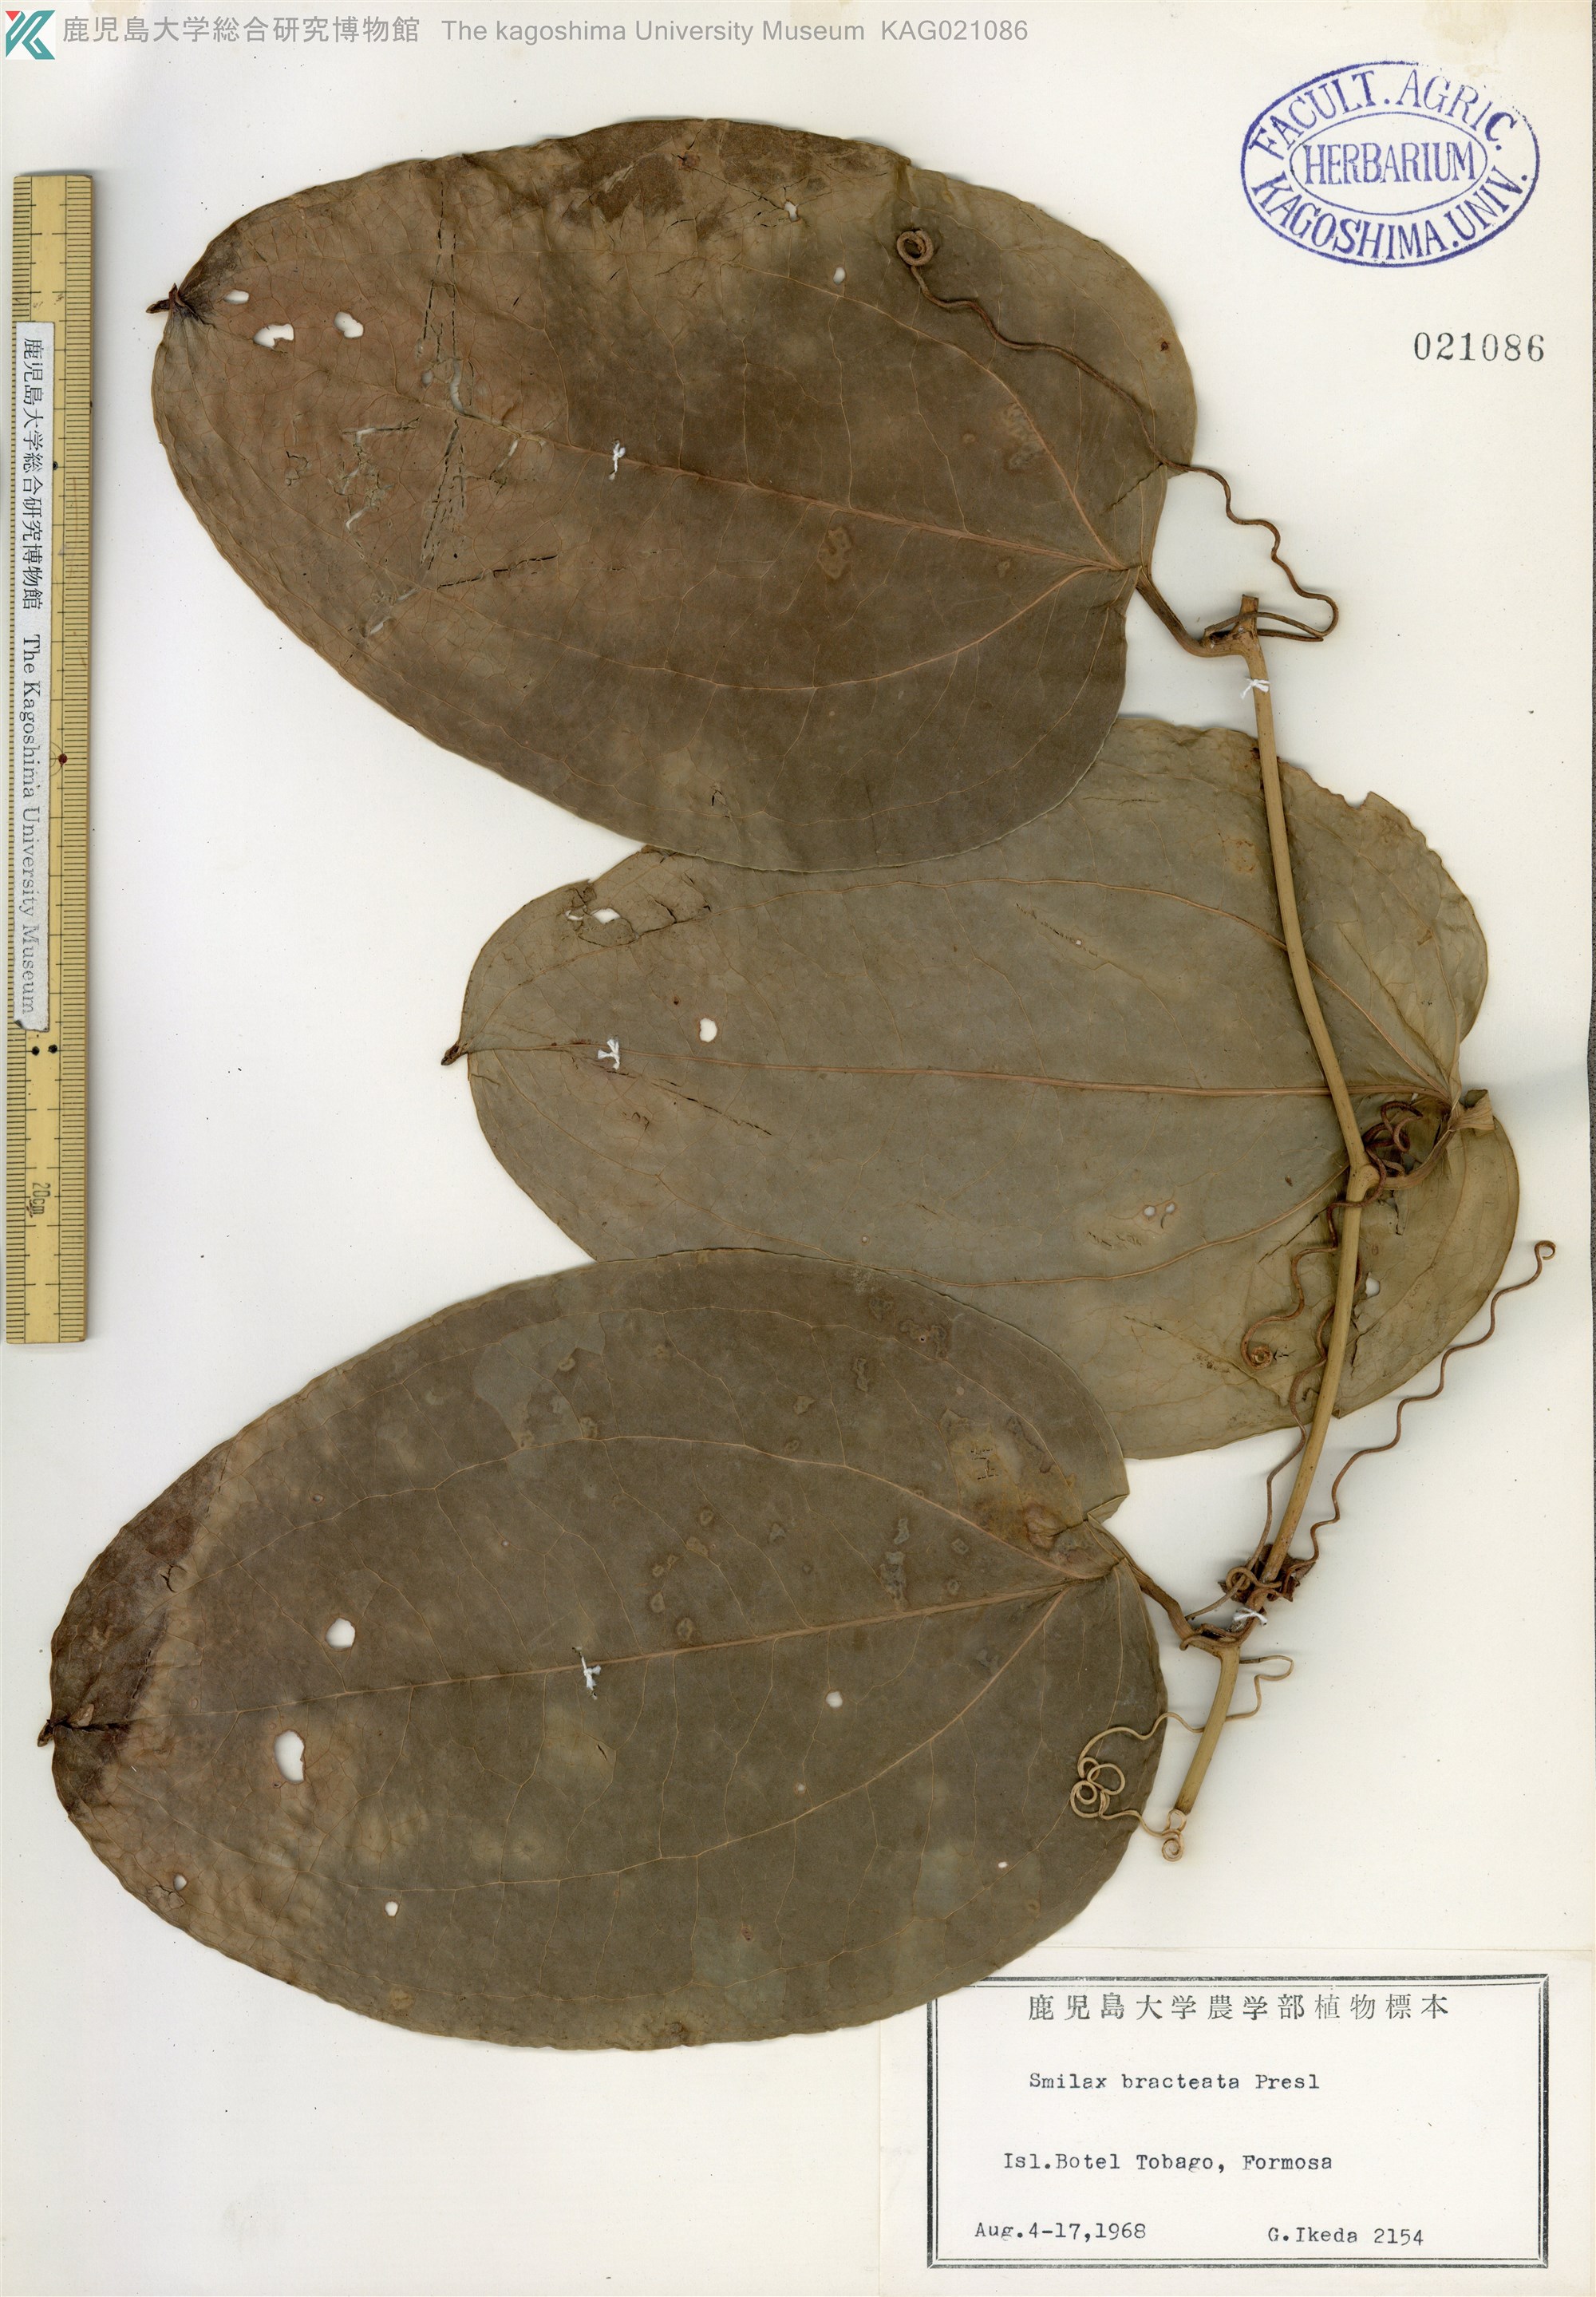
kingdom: Plantae
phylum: Tracheophyta
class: Liliopsida
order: Liliales
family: Smilacaceae
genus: Smilax
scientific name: Smilax bracteata
